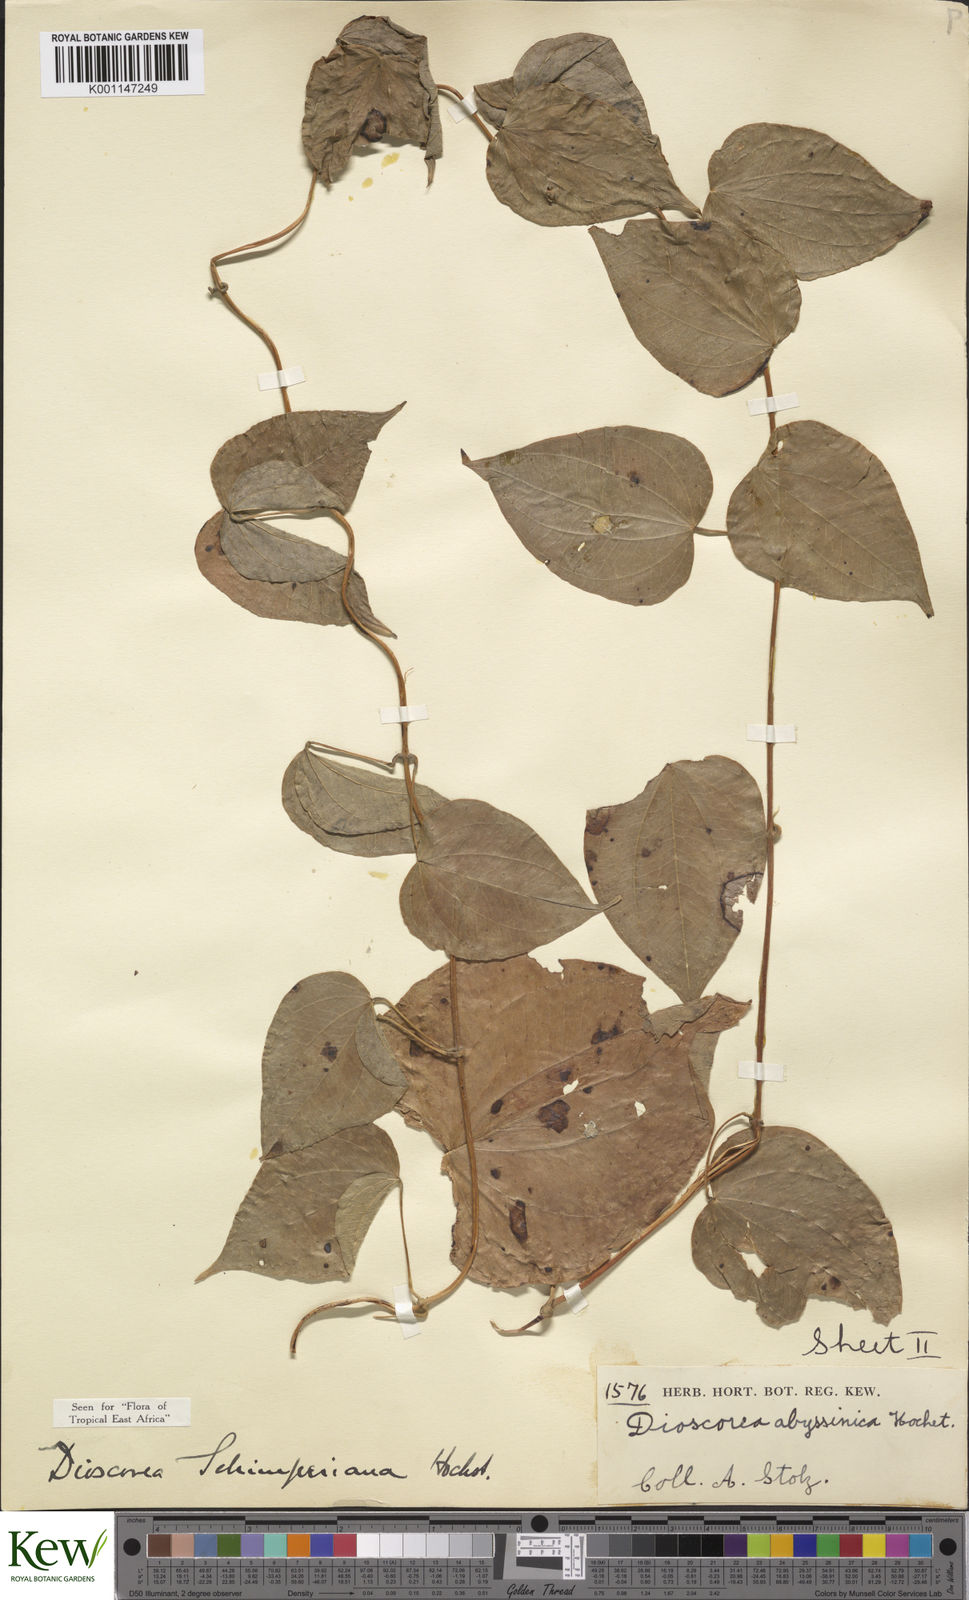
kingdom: Plantae
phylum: Tracheophyta
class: Liliopsida
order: Dioscoreales
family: Dioscoreaceae
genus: Dioscorea
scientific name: Dioscorea schimperiana
